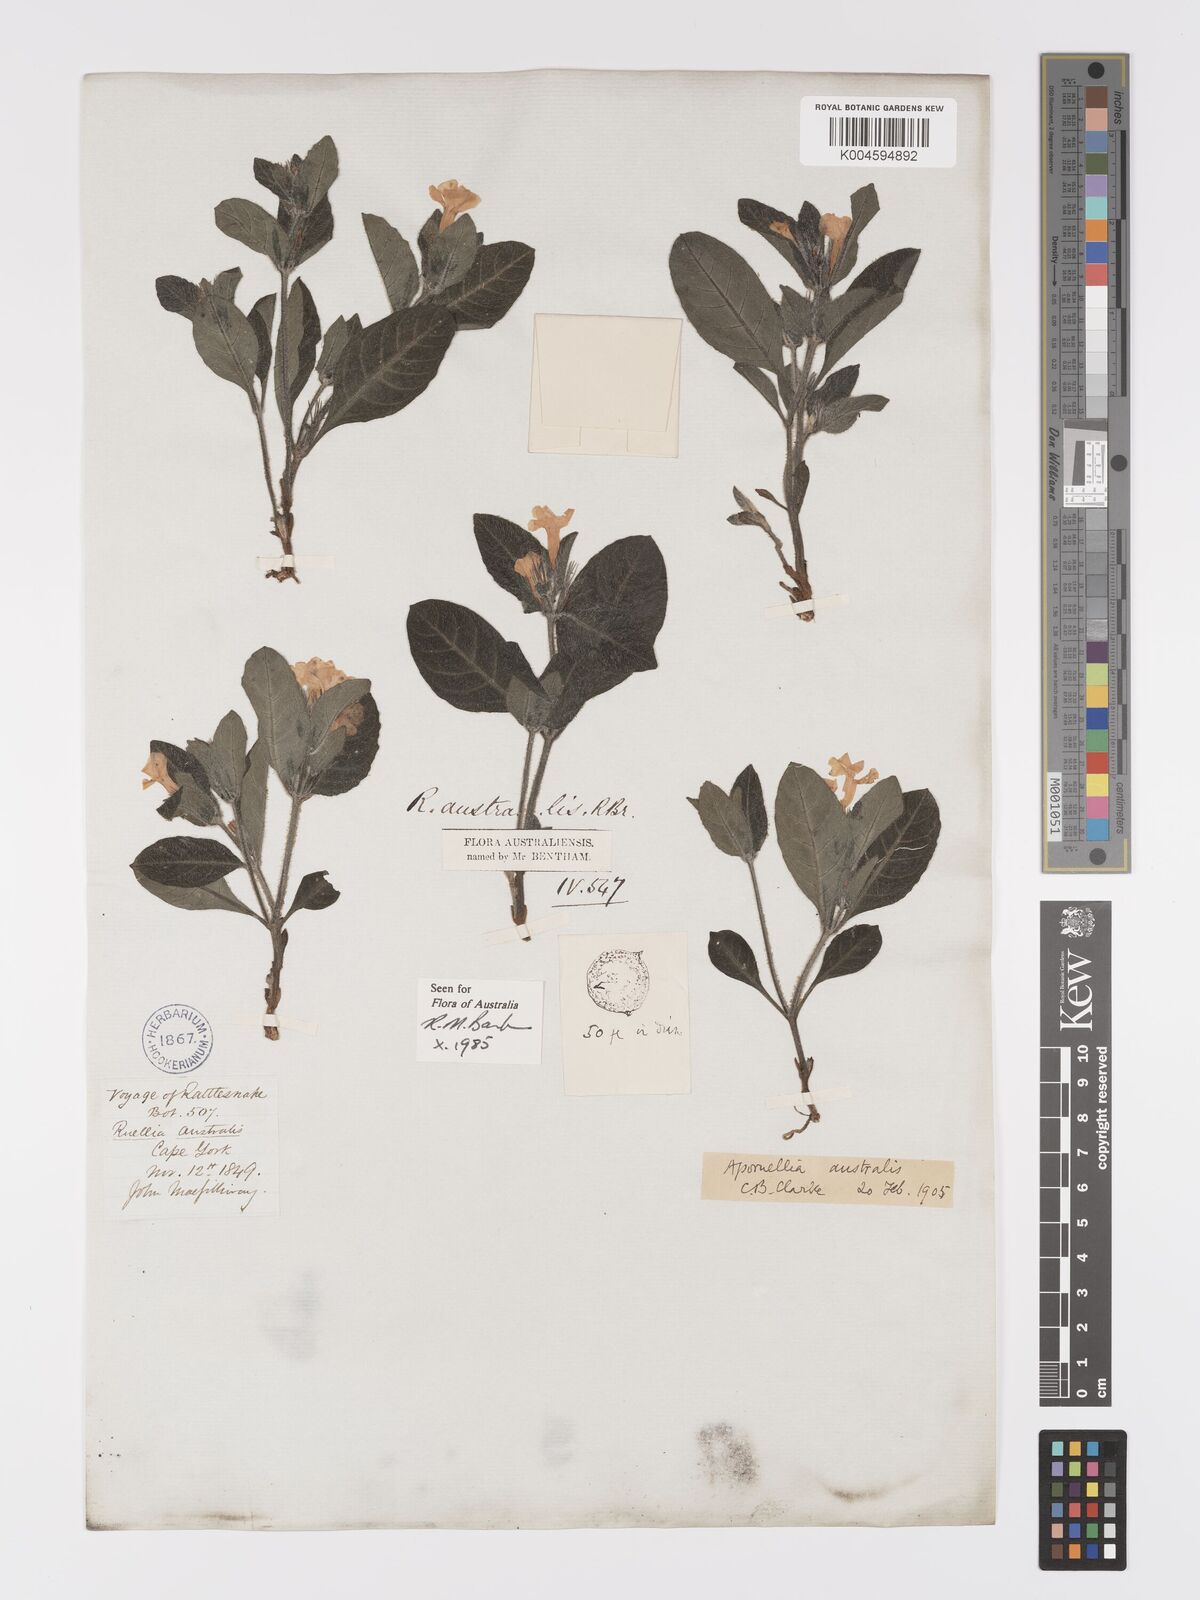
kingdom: Plantae
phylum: Tracheophyta
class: Magnoliopsida
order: Lamiales
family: Acanthaceae
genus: Brunoniella
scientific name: Brunoniella
